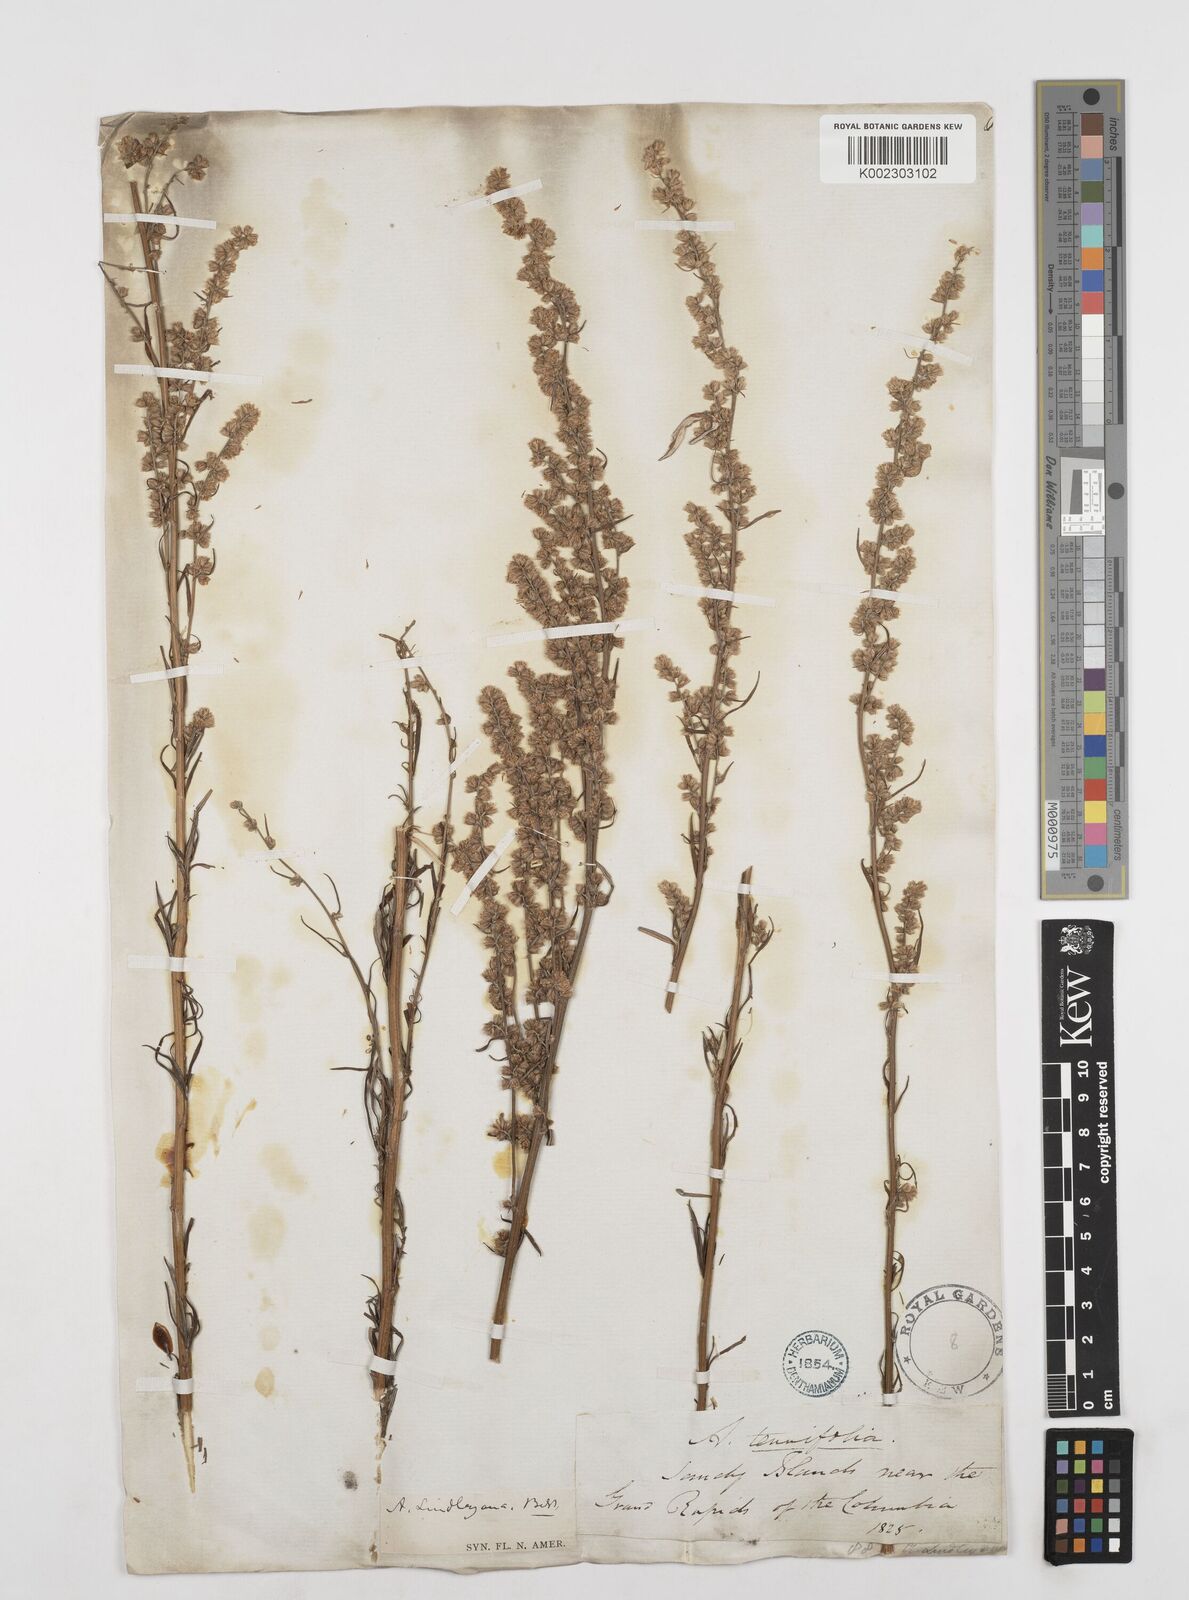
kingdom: Plantae
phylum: Tracheophyta
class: Magnoliopsida
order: Asterales
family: Asteraceae
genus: Artemisia
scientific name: Artemisia ludoviciana
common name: Western mugwort
